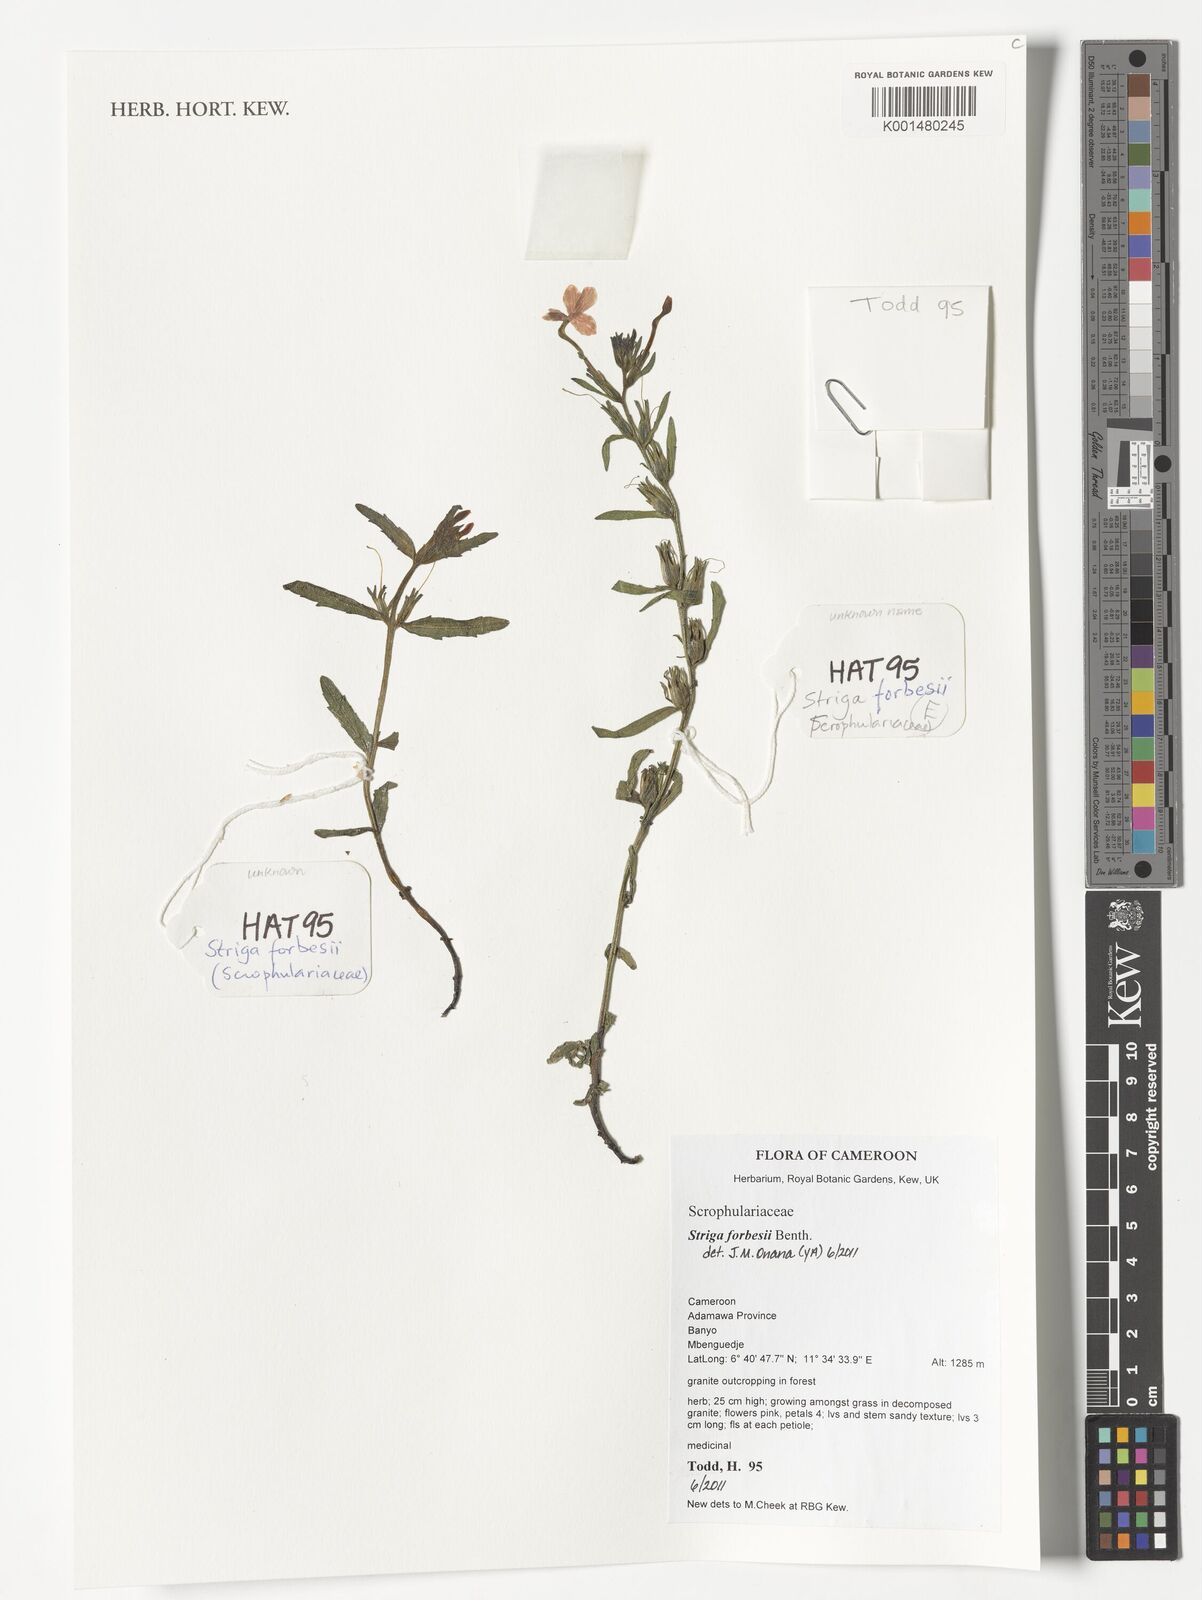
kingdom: Plantae
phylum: Tracheophyta
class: Magnoliopsida
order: Lamiales
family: Orobanchaceae
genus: Striga
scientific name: Striga forbesii
